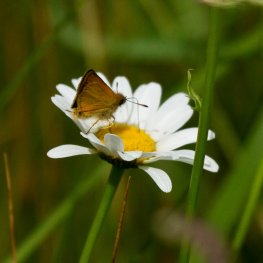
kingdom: Animalia
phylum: Arthropoda
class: Insecta
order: Lepidoptera
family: Hesperiidae
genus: Thymelicus
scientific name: Thymelicus lineola
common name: European Skipper
